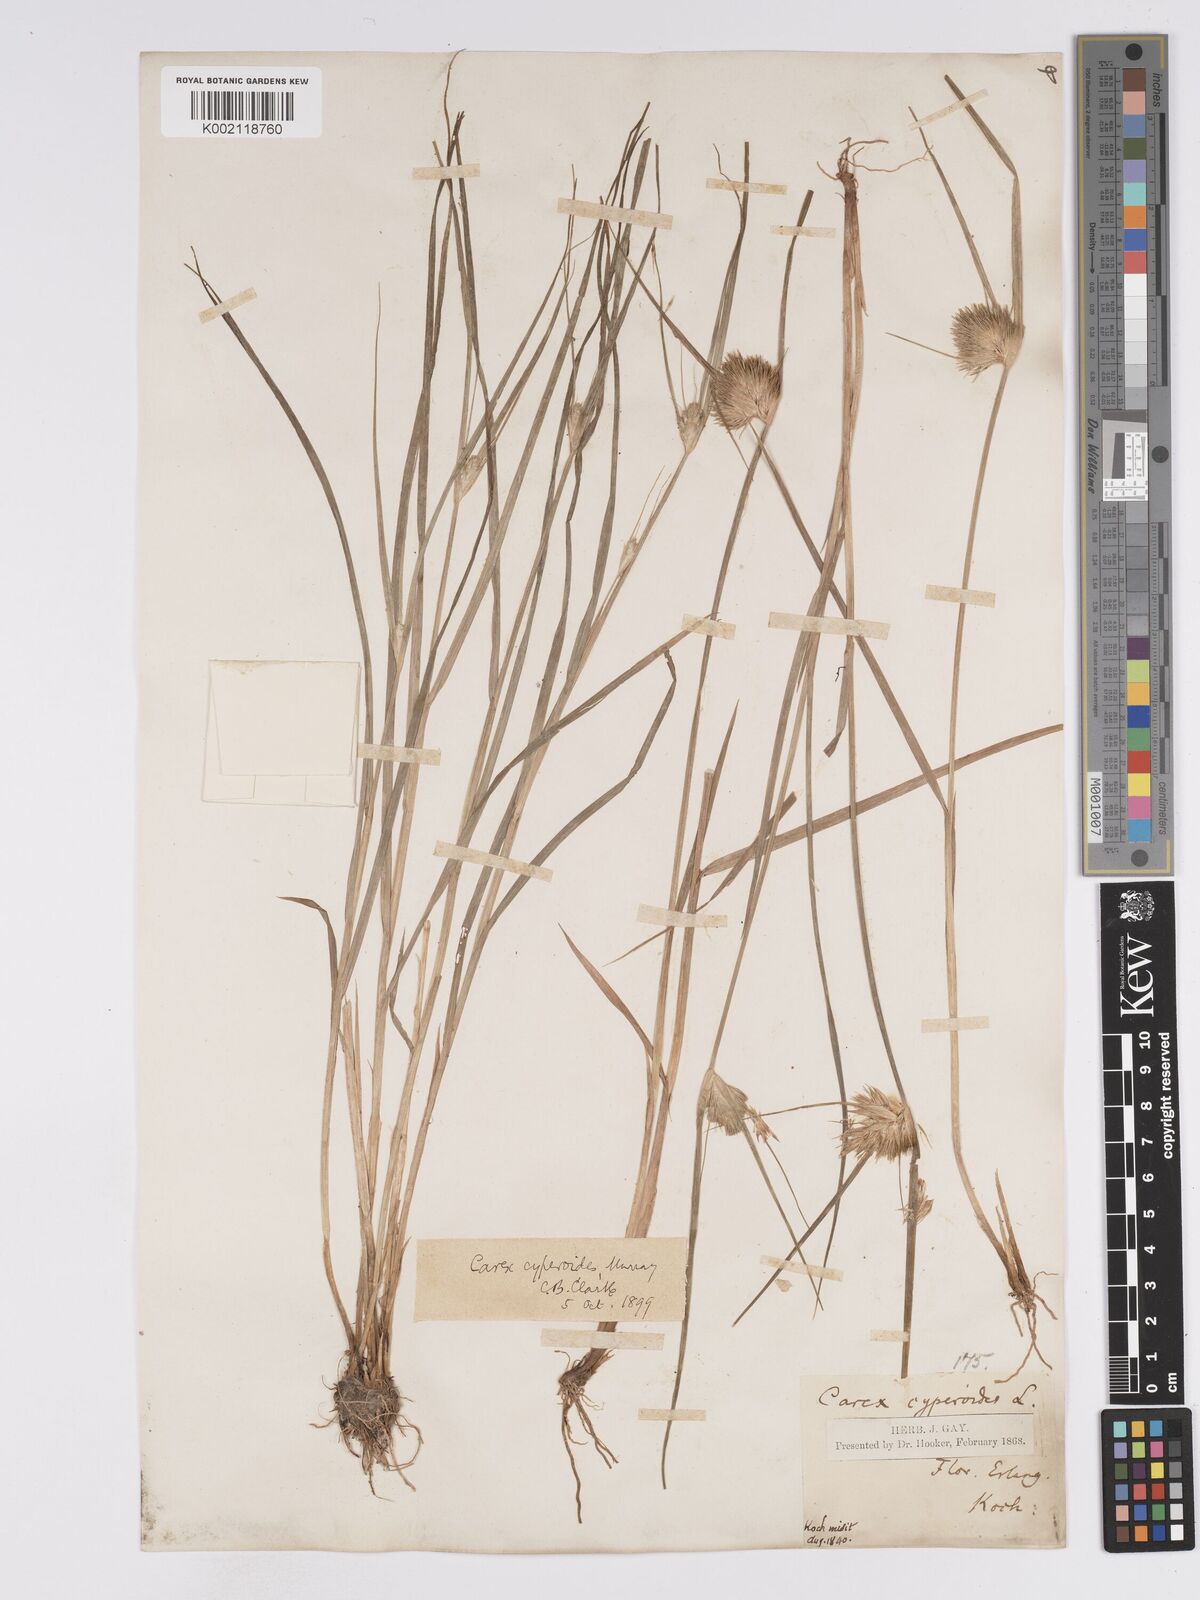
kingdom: Plantae
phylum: Tracheophyta
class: Liliopsida
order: Poales
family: Cyperaceae
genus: Carex
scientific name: Carex bohemica
